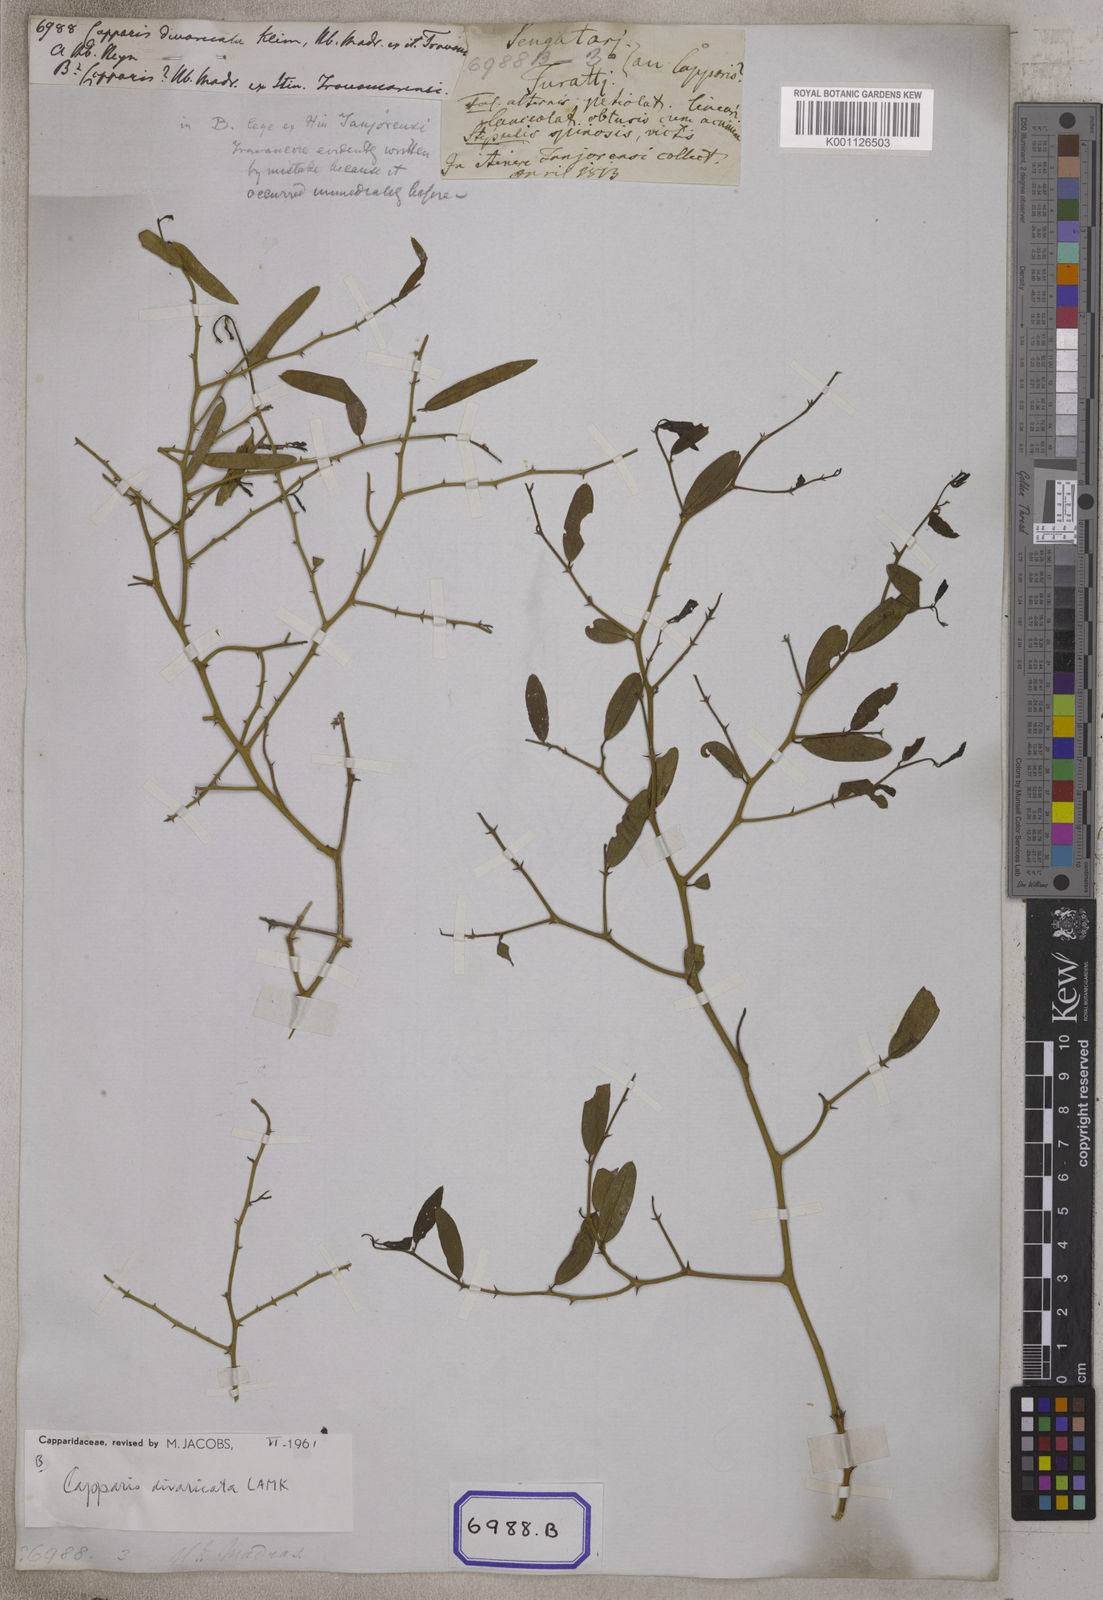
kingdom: Plantae
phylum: Tracheophyta
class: Magnoliopsida
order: Brassicales
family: Capparaceae
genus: Capparis
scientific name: Capparis divaricata
